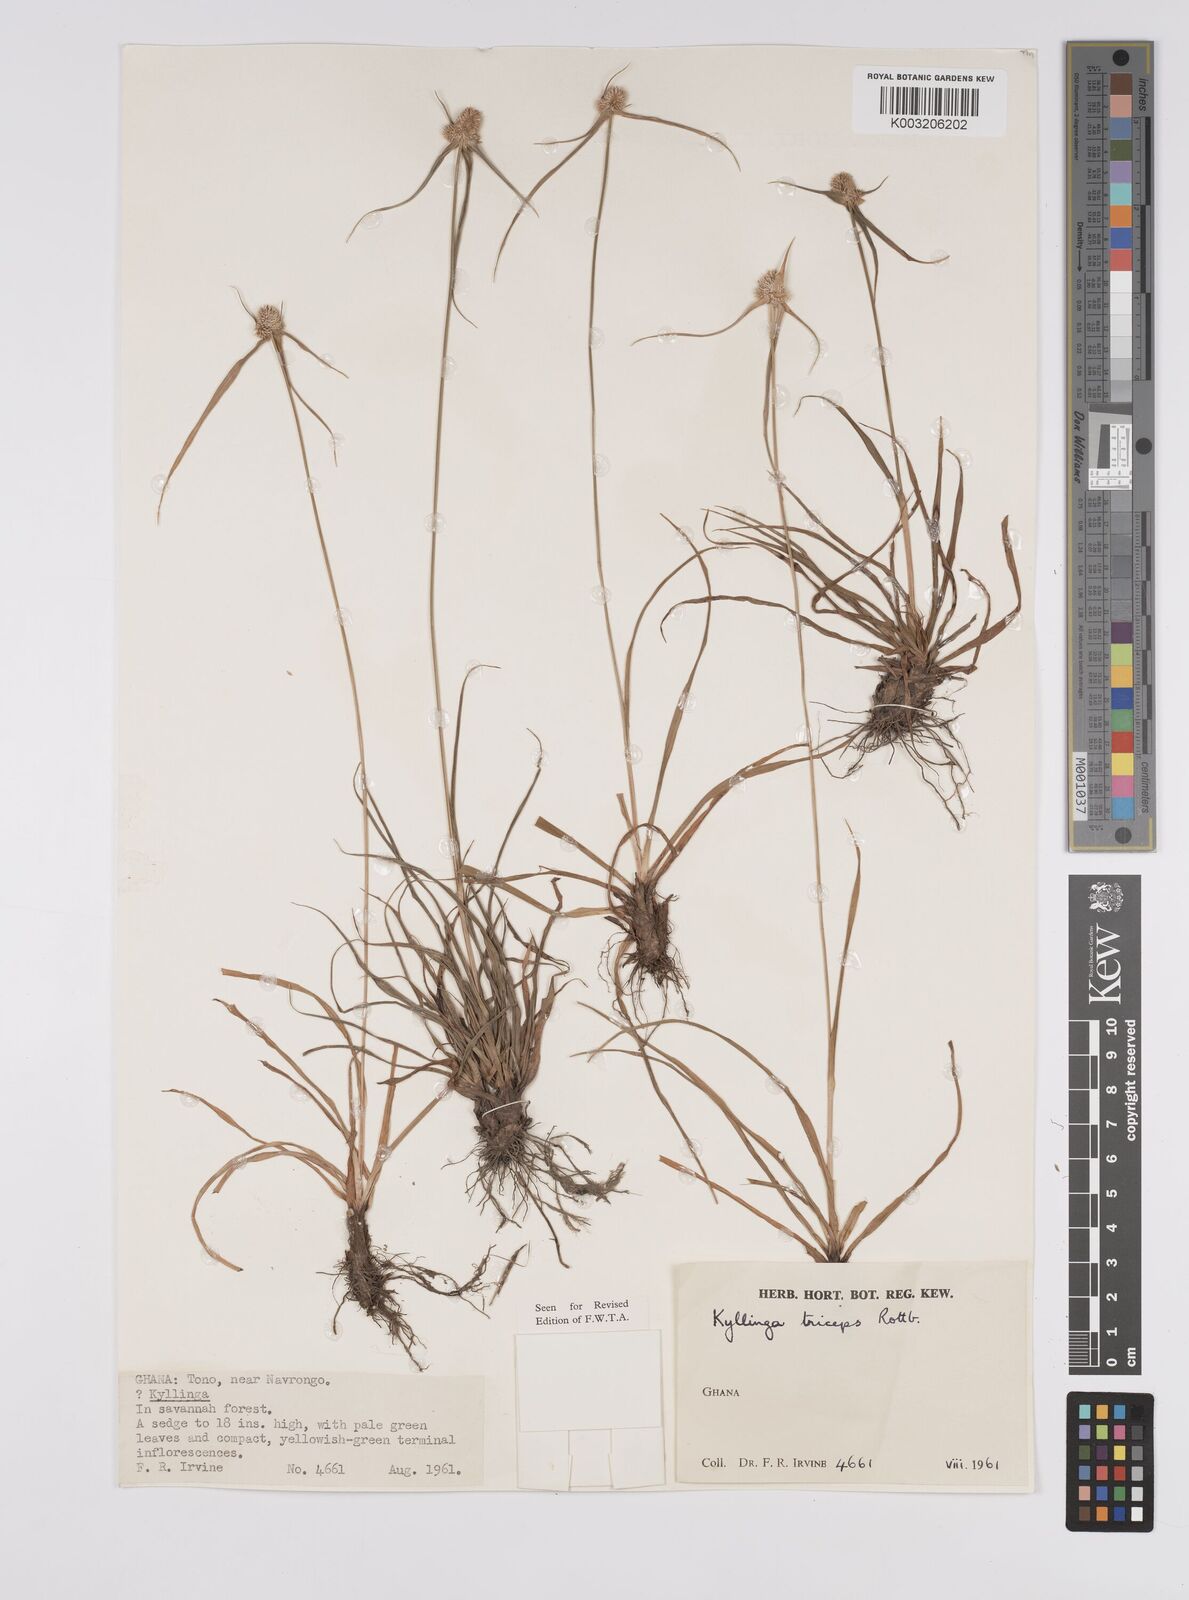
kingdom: Plantae
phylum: Tracheophyta
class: Liliopsida
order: Poales
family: Cyperaceae
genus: Cyperus
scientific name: Cyperus
